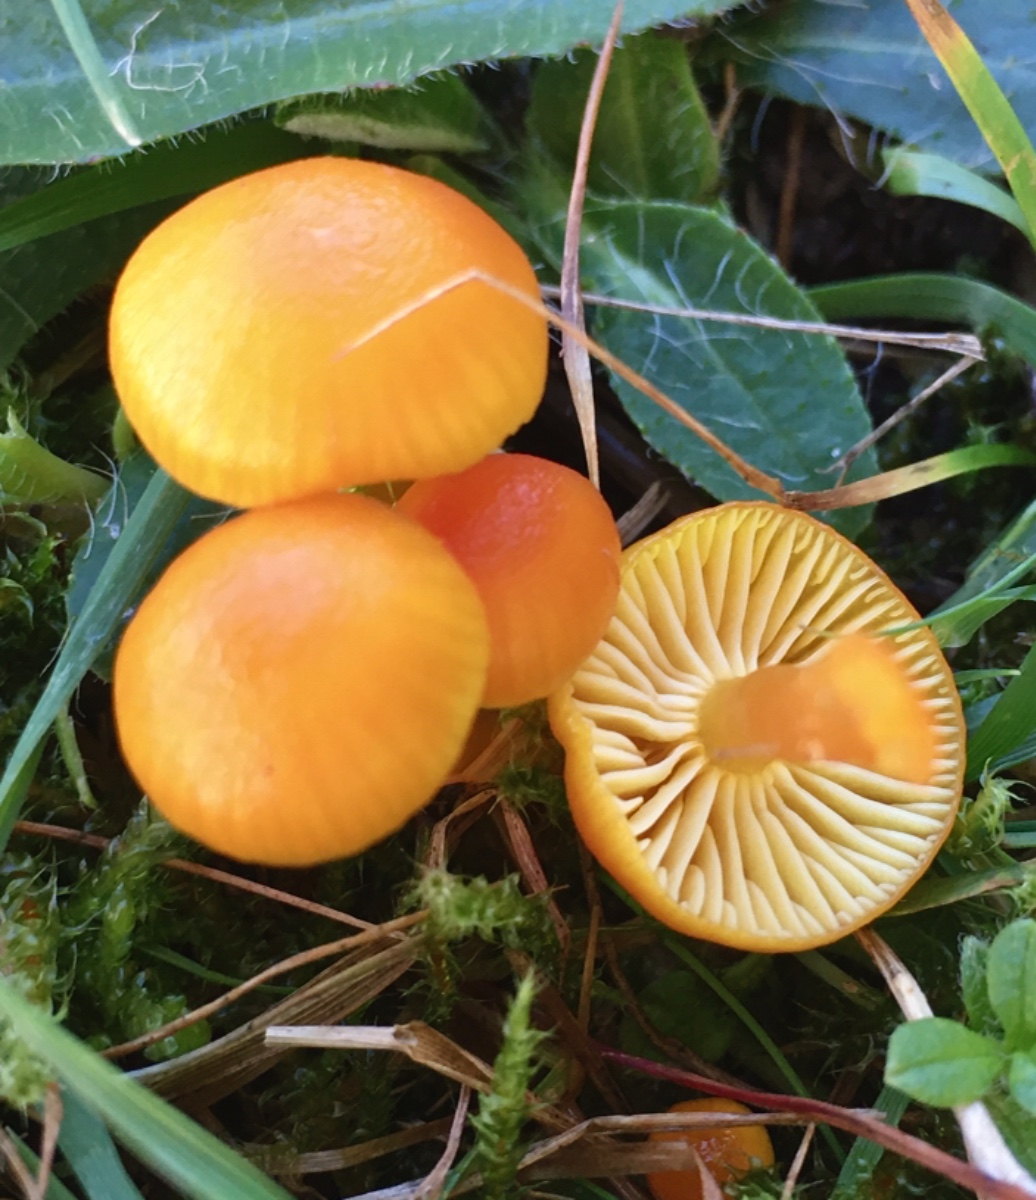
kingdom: Fungi
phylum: Basidiomycota
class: Agaricomycetes
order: Agaricales
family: Hygrophoraceae
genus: Hygrocybe
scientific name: Hygrocybe ceracea
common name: voksgul vokshat
